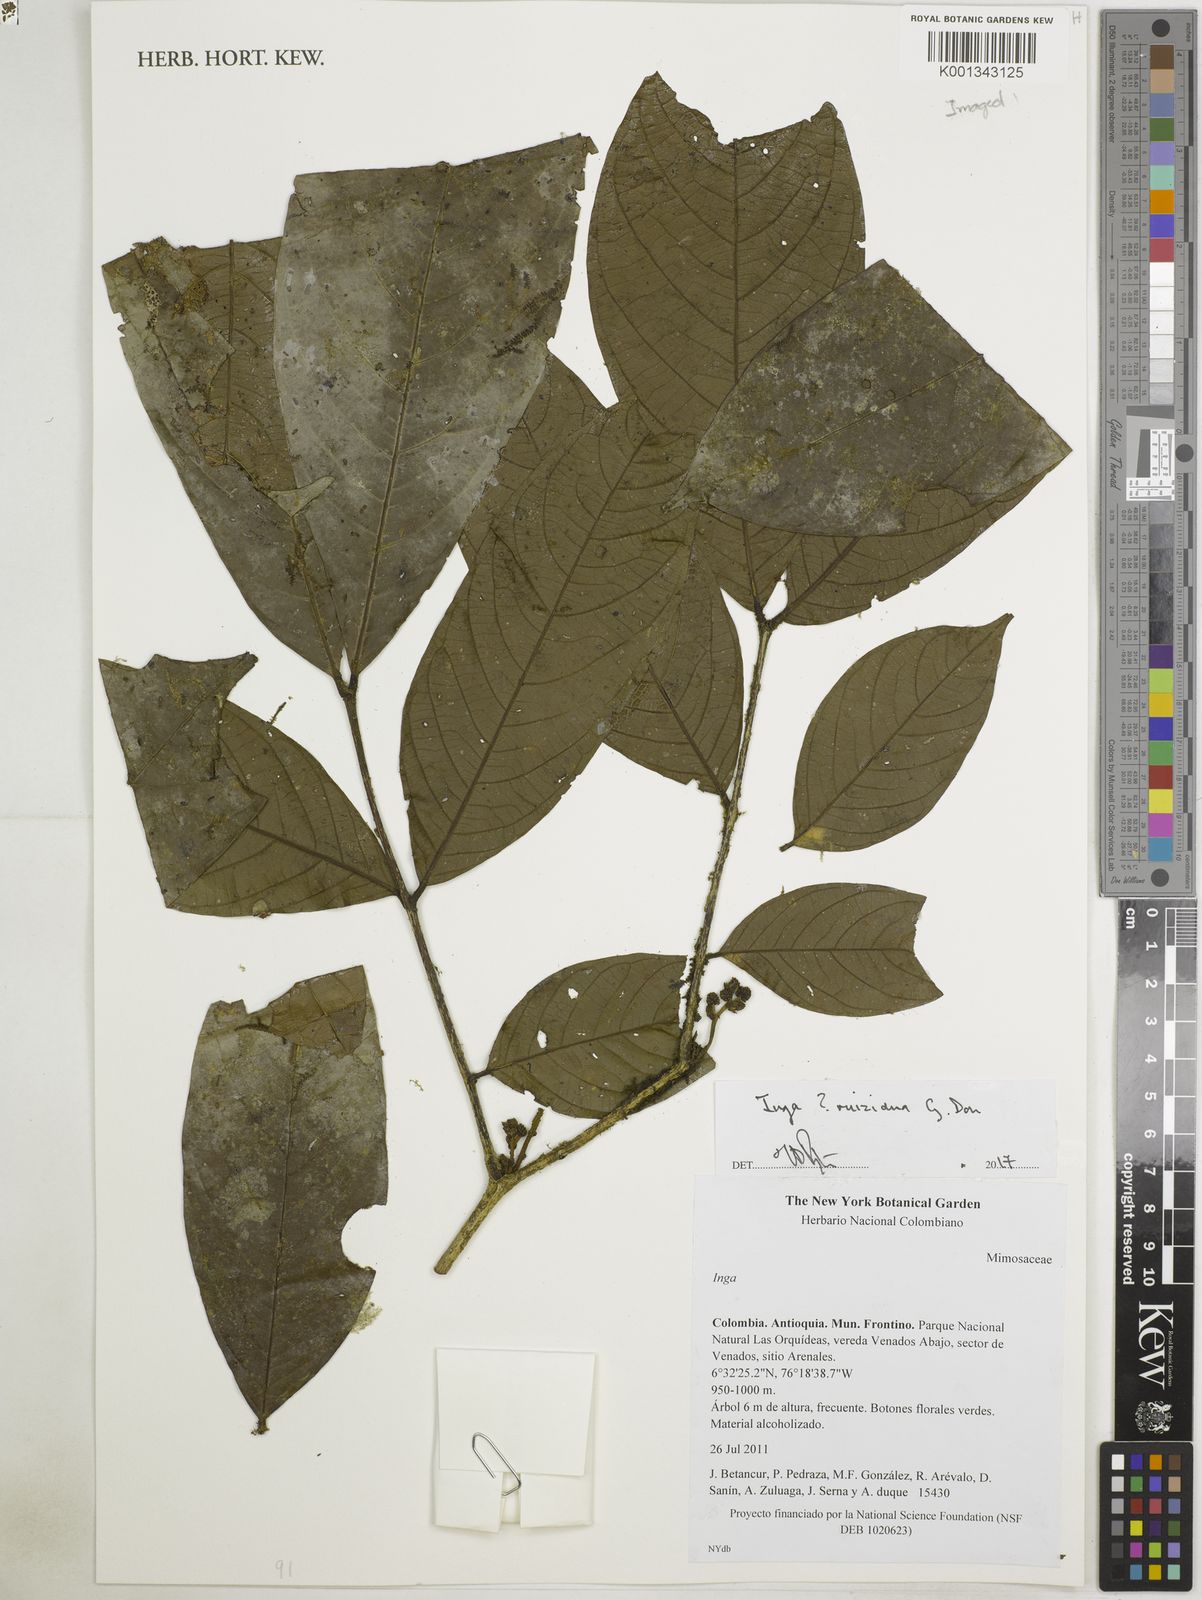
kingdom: Plantae
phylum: Tracheophyta
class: Magnoliopsida
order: Fabales
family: Fabaceae
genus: Inga
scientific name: Inga ruiziana
